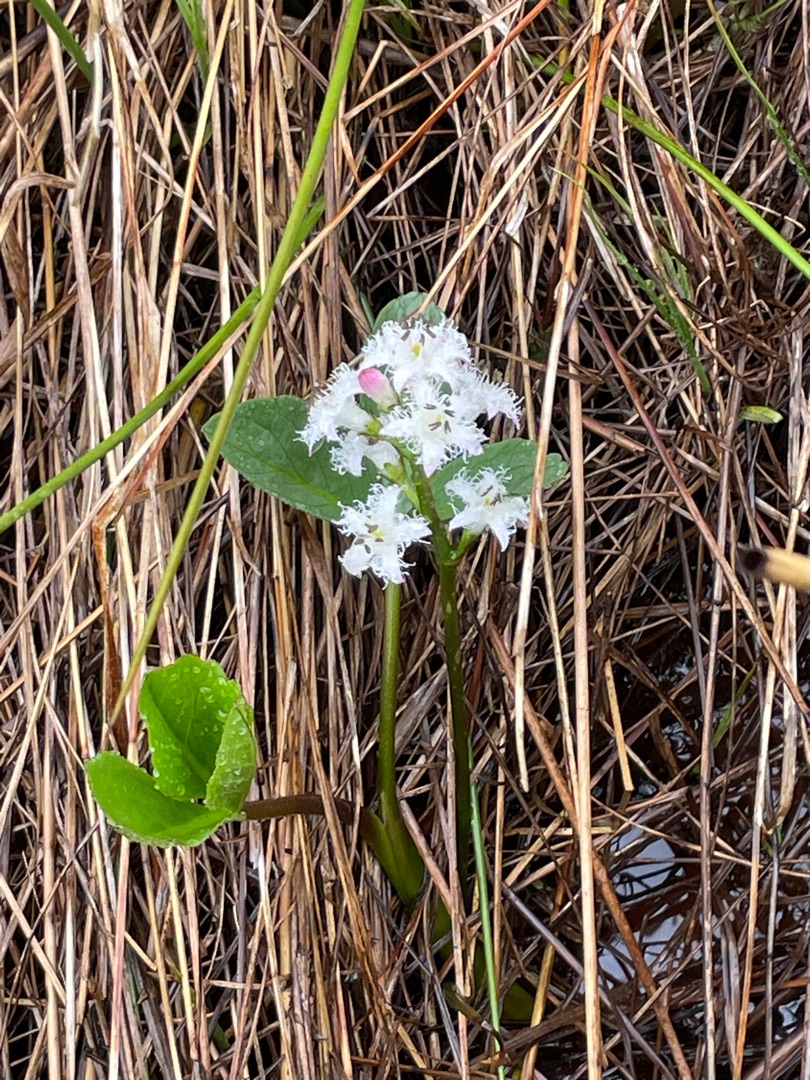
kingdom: Plantae
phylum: Tracheophyta
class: Magnoliopsida
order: Asterales
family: Menyanthaceae
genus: Menyanthes
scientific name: Menyanthes trifoliata
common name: Bukkeblad
